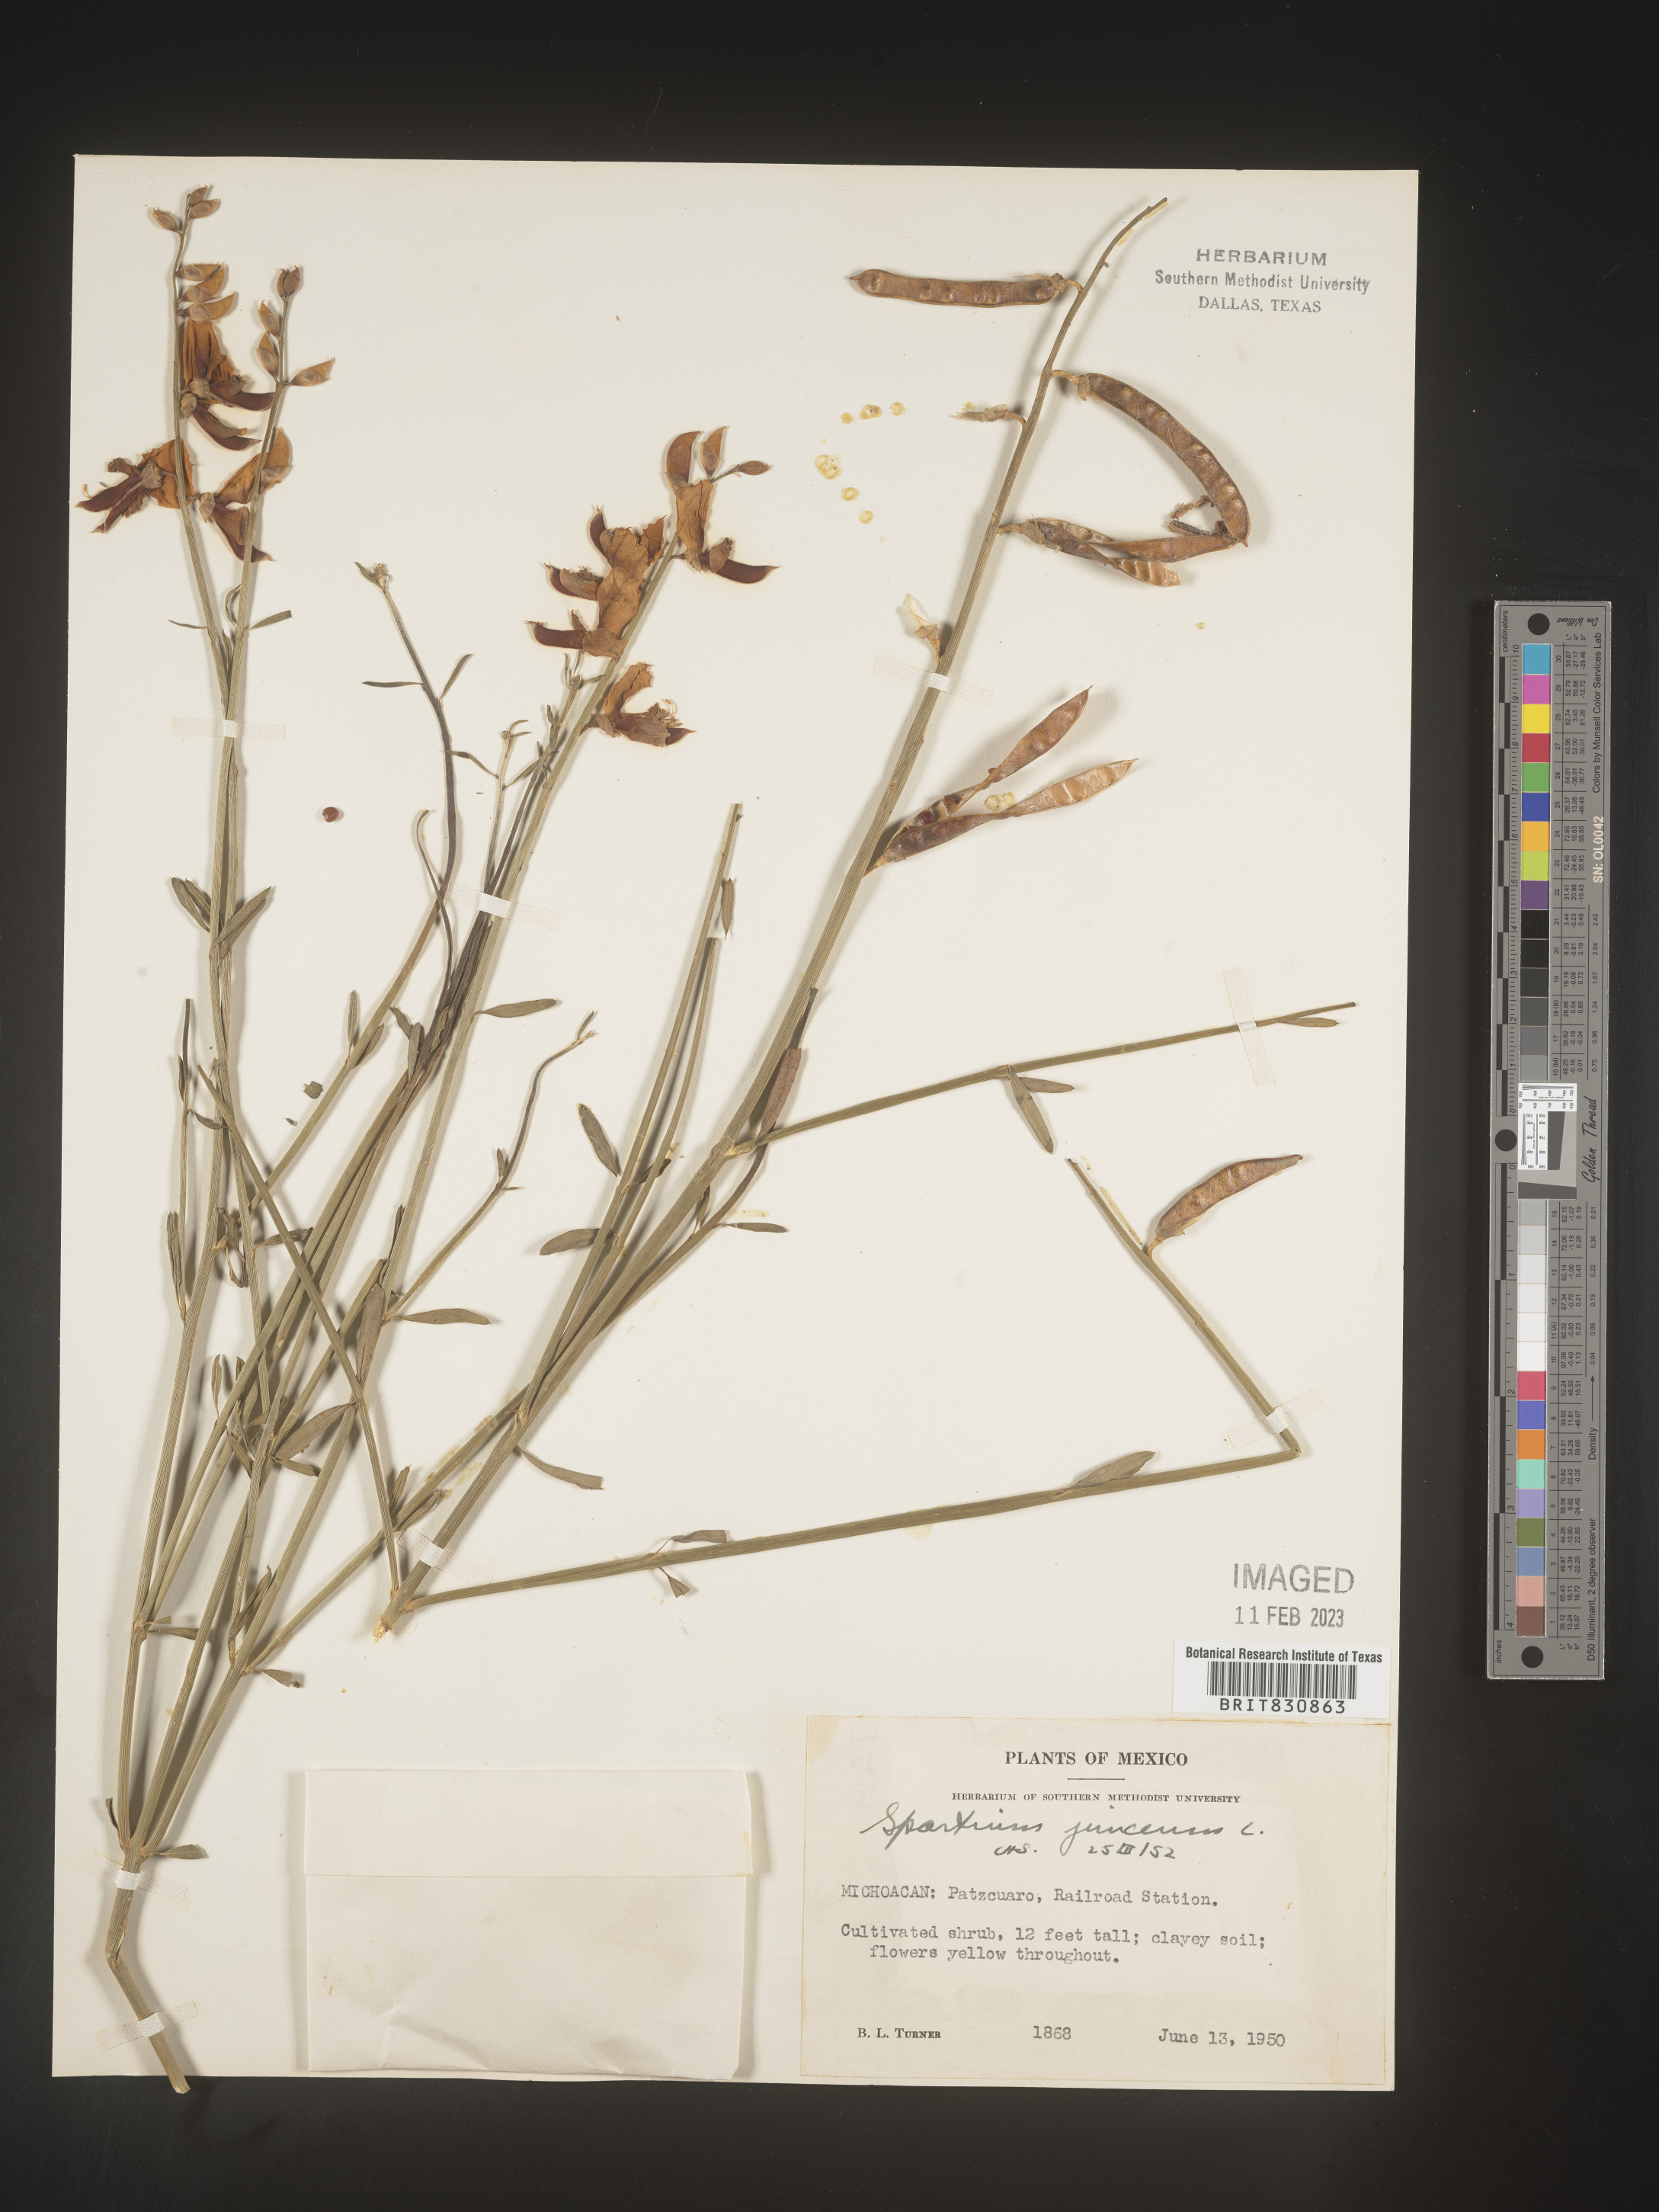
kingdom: Plantae
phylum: Tracheophyta
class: Magnoliopsida
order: Fabales
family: Fabaceae
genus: Spartium
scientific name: Spartium
